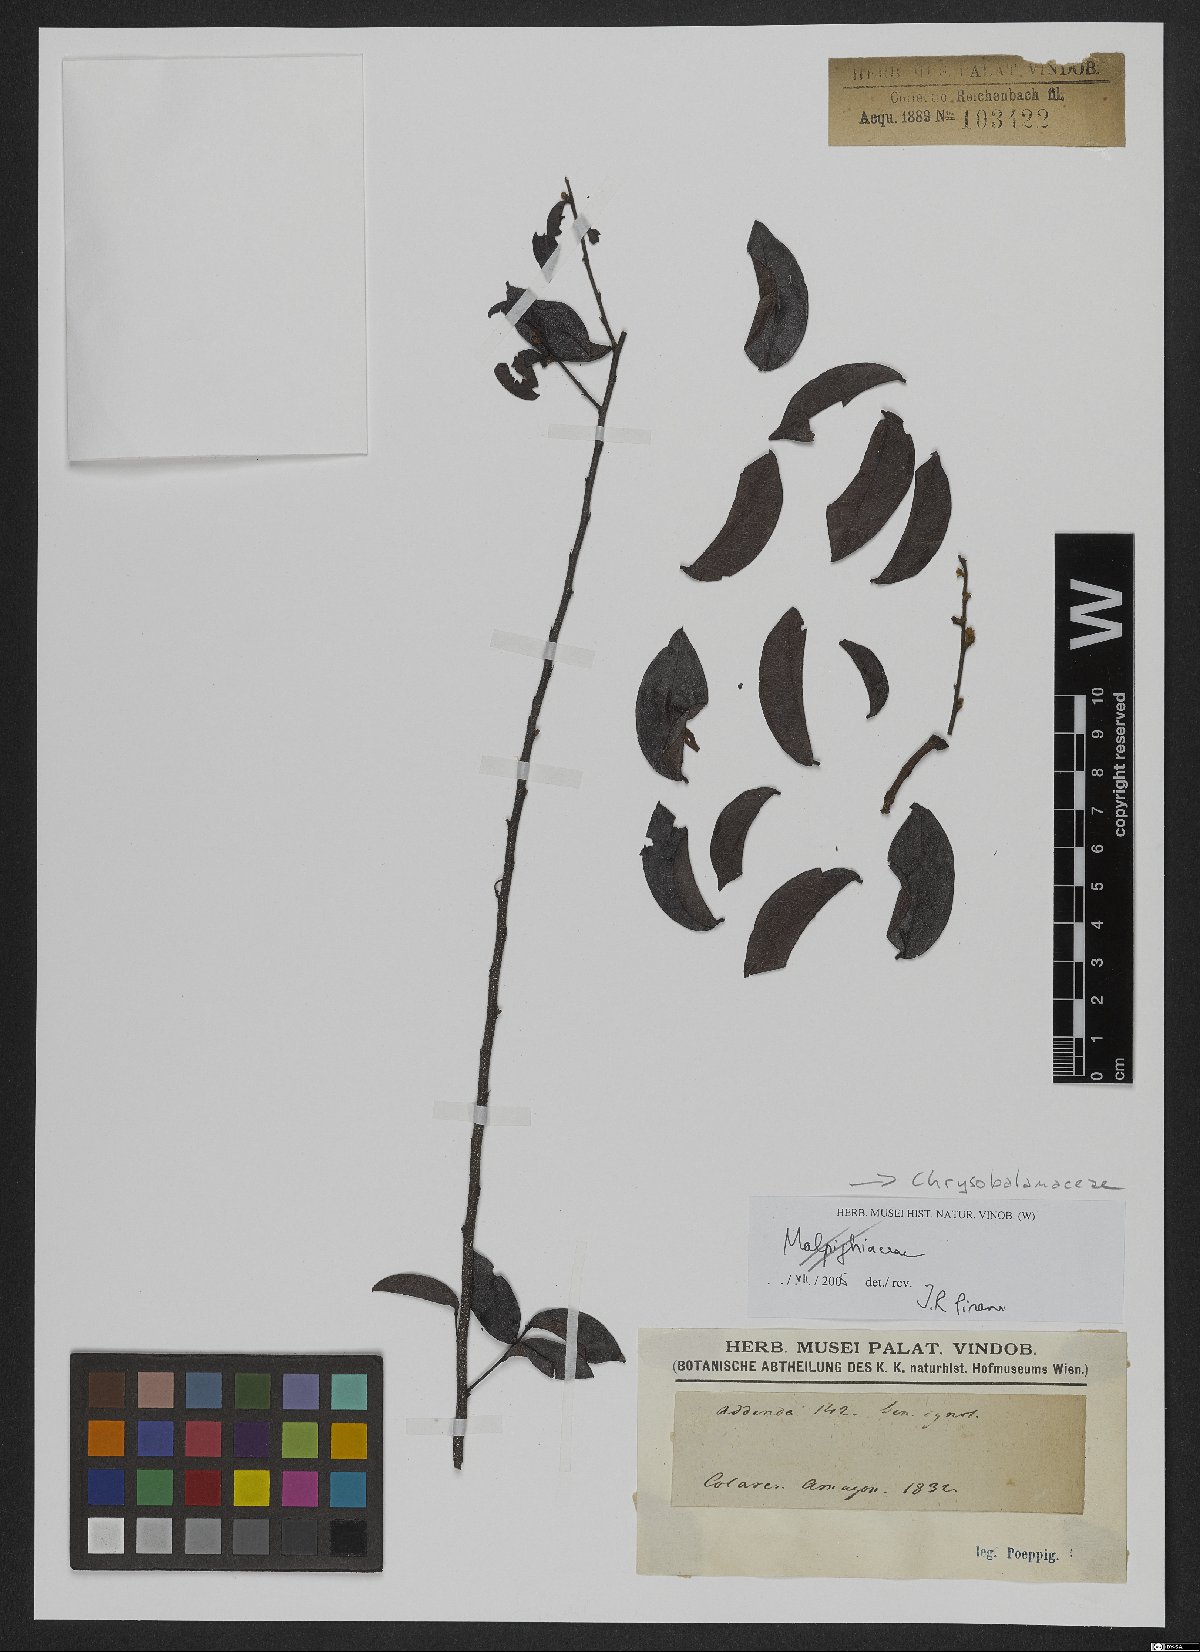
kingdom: Plantae
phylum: Tracheophyta
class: Magnoliopsida
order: Malpighiales
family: Chrysobalanaceae
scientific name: Chrysobalanaceae
